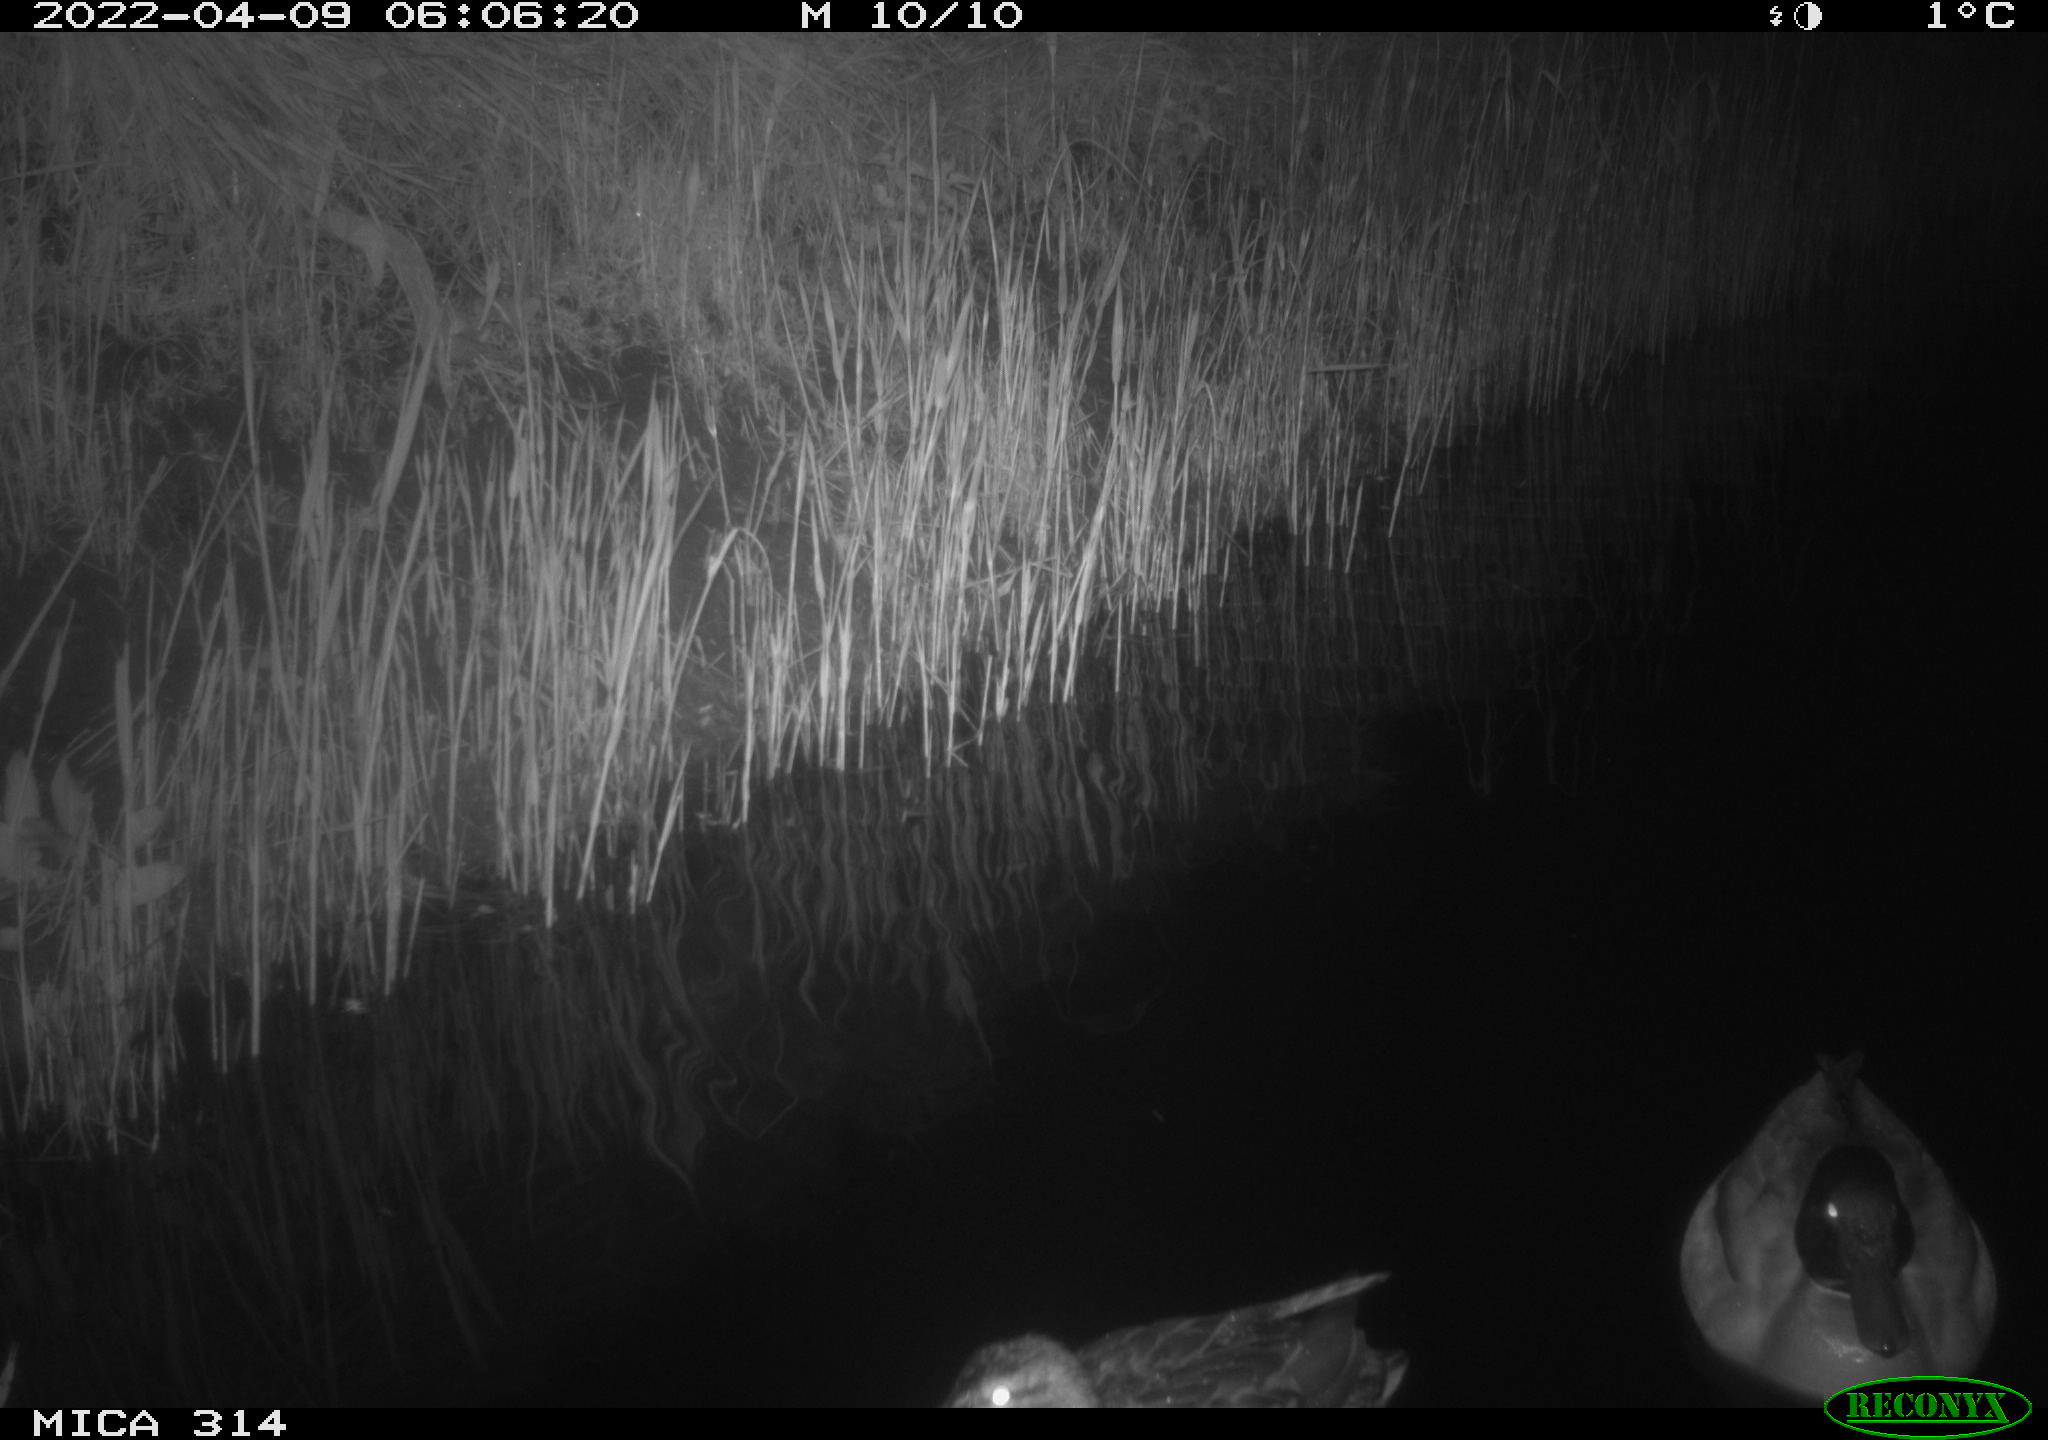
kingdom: Animalia
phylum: Chordata
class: Aves
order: Anseriformes
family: Anatidae
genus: Anas
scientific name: Anas platyrhynchos
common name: Mallard
